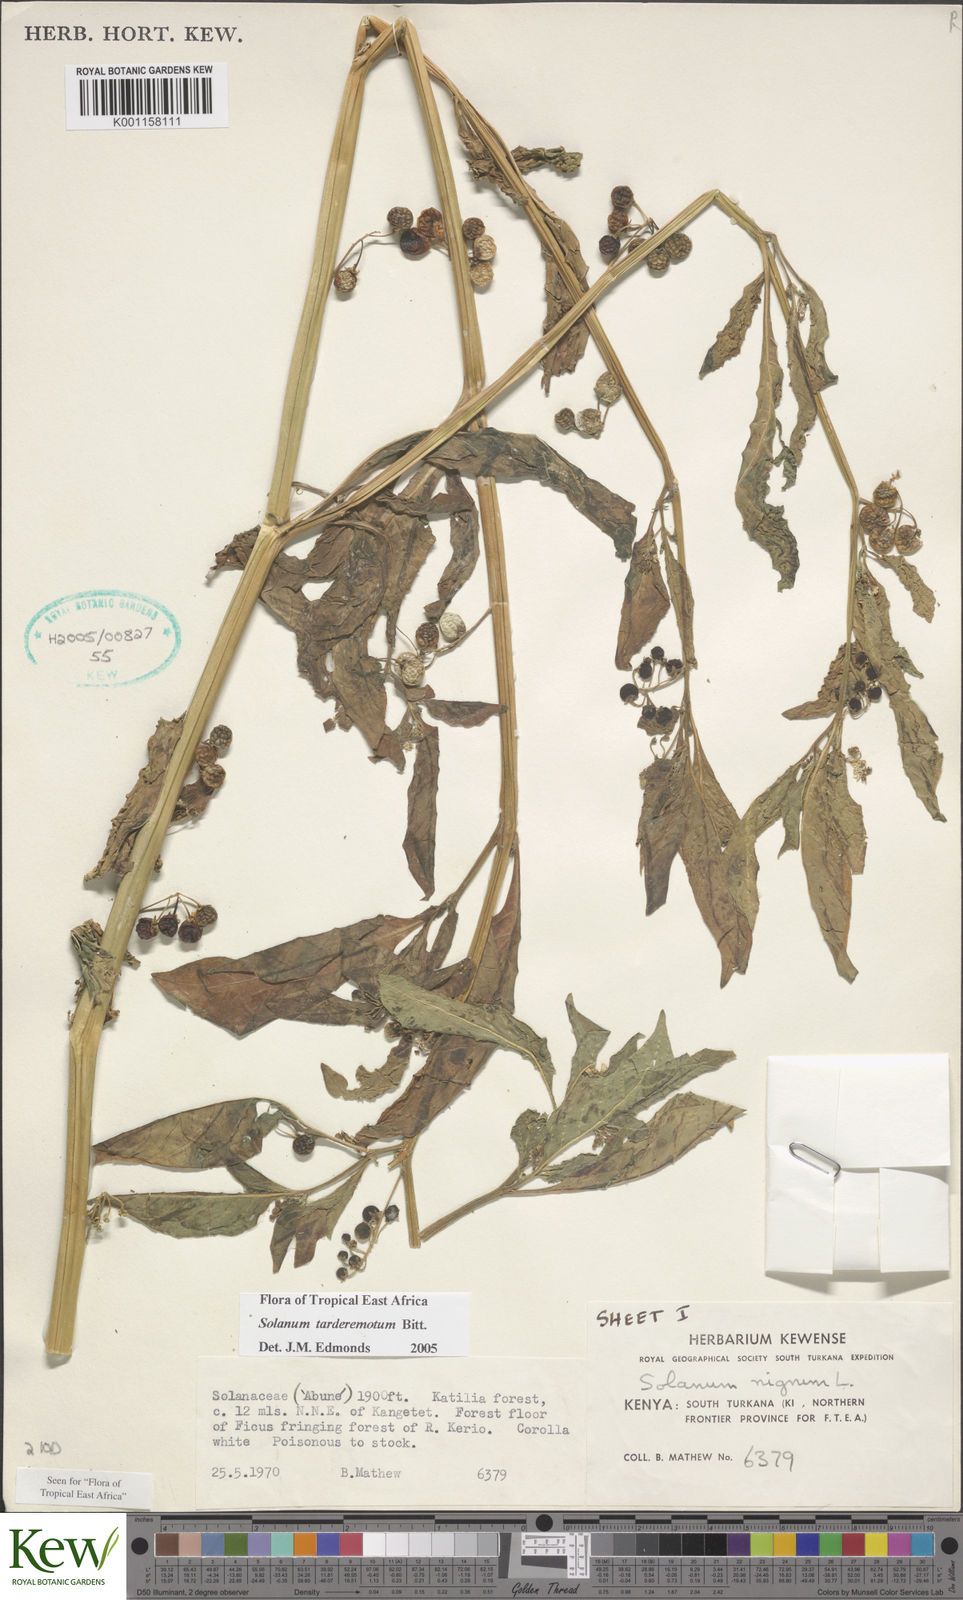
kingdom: Plantae
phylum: Tracheophyta
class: Magnoliopsida
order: Solanales
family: Solanaceae
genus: Solanum
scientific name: Solanum tarderemotum
